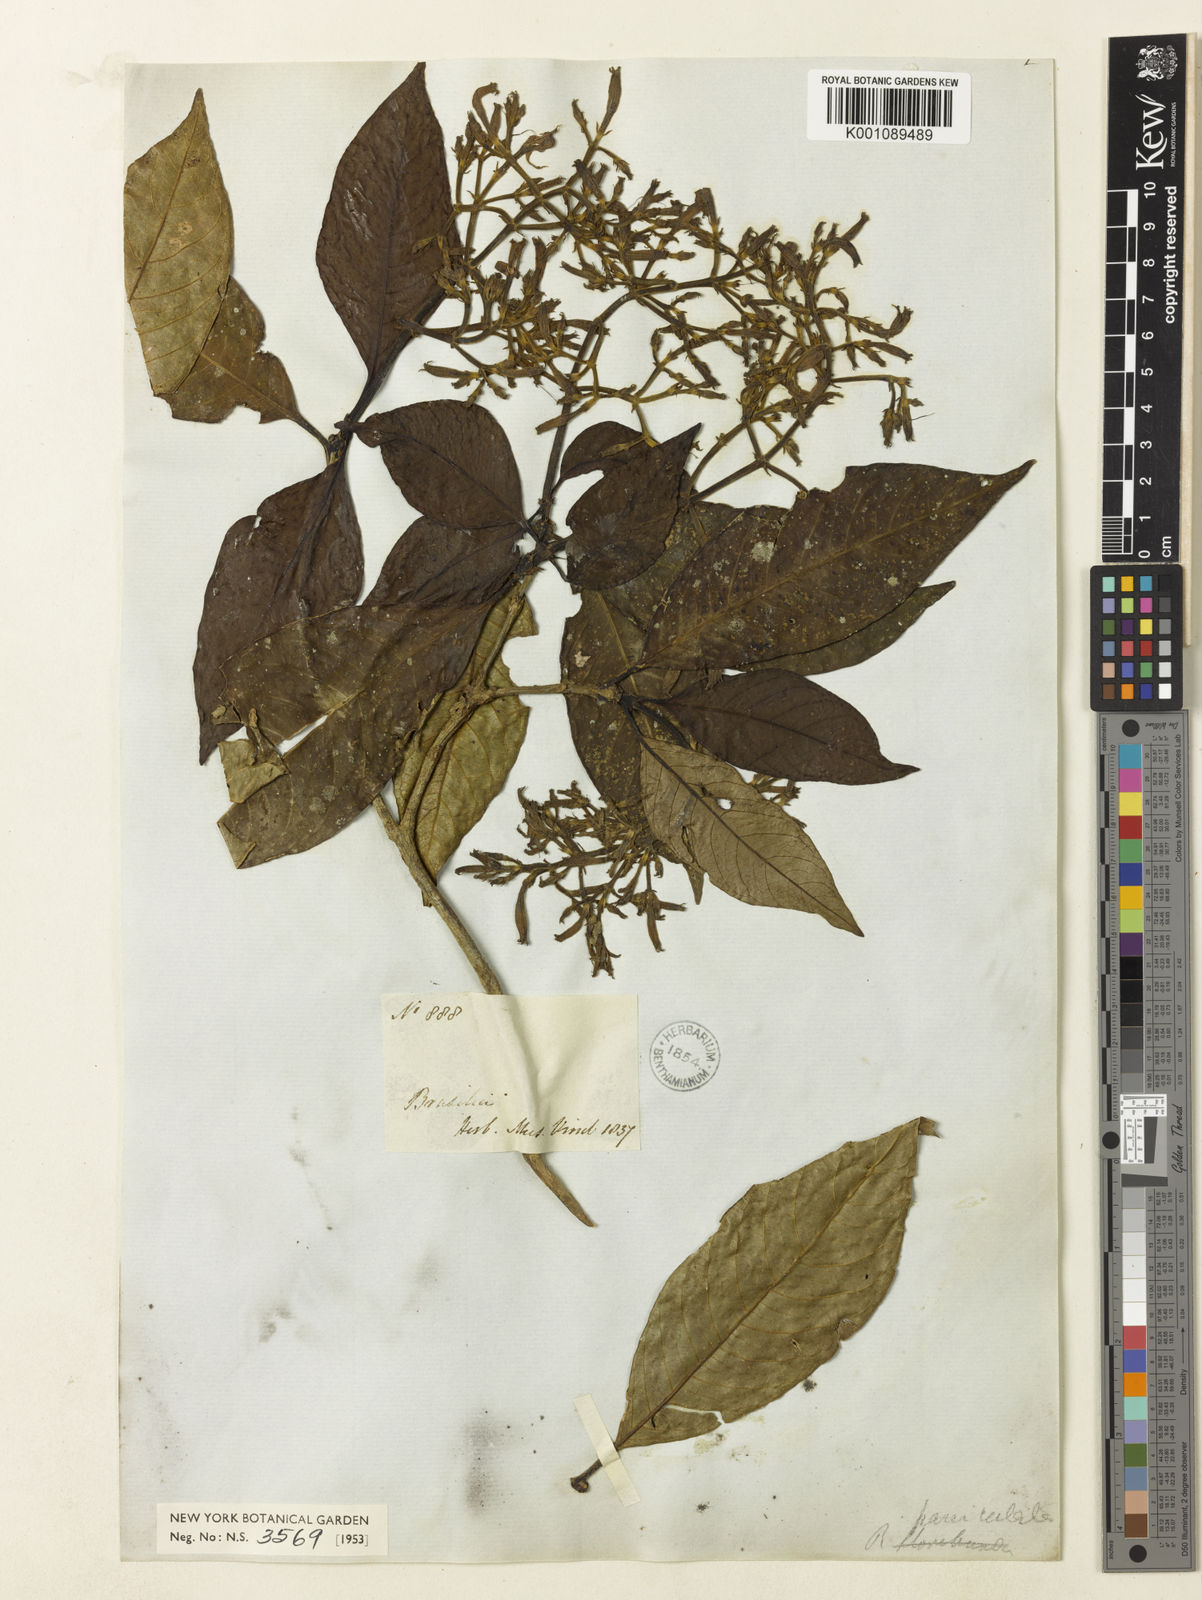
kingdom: Plantae
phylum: Tracheophyta
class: Magnoliopsida
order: Gentianales
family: Rubiaceae
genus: Rudgea
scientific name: Rudgea
